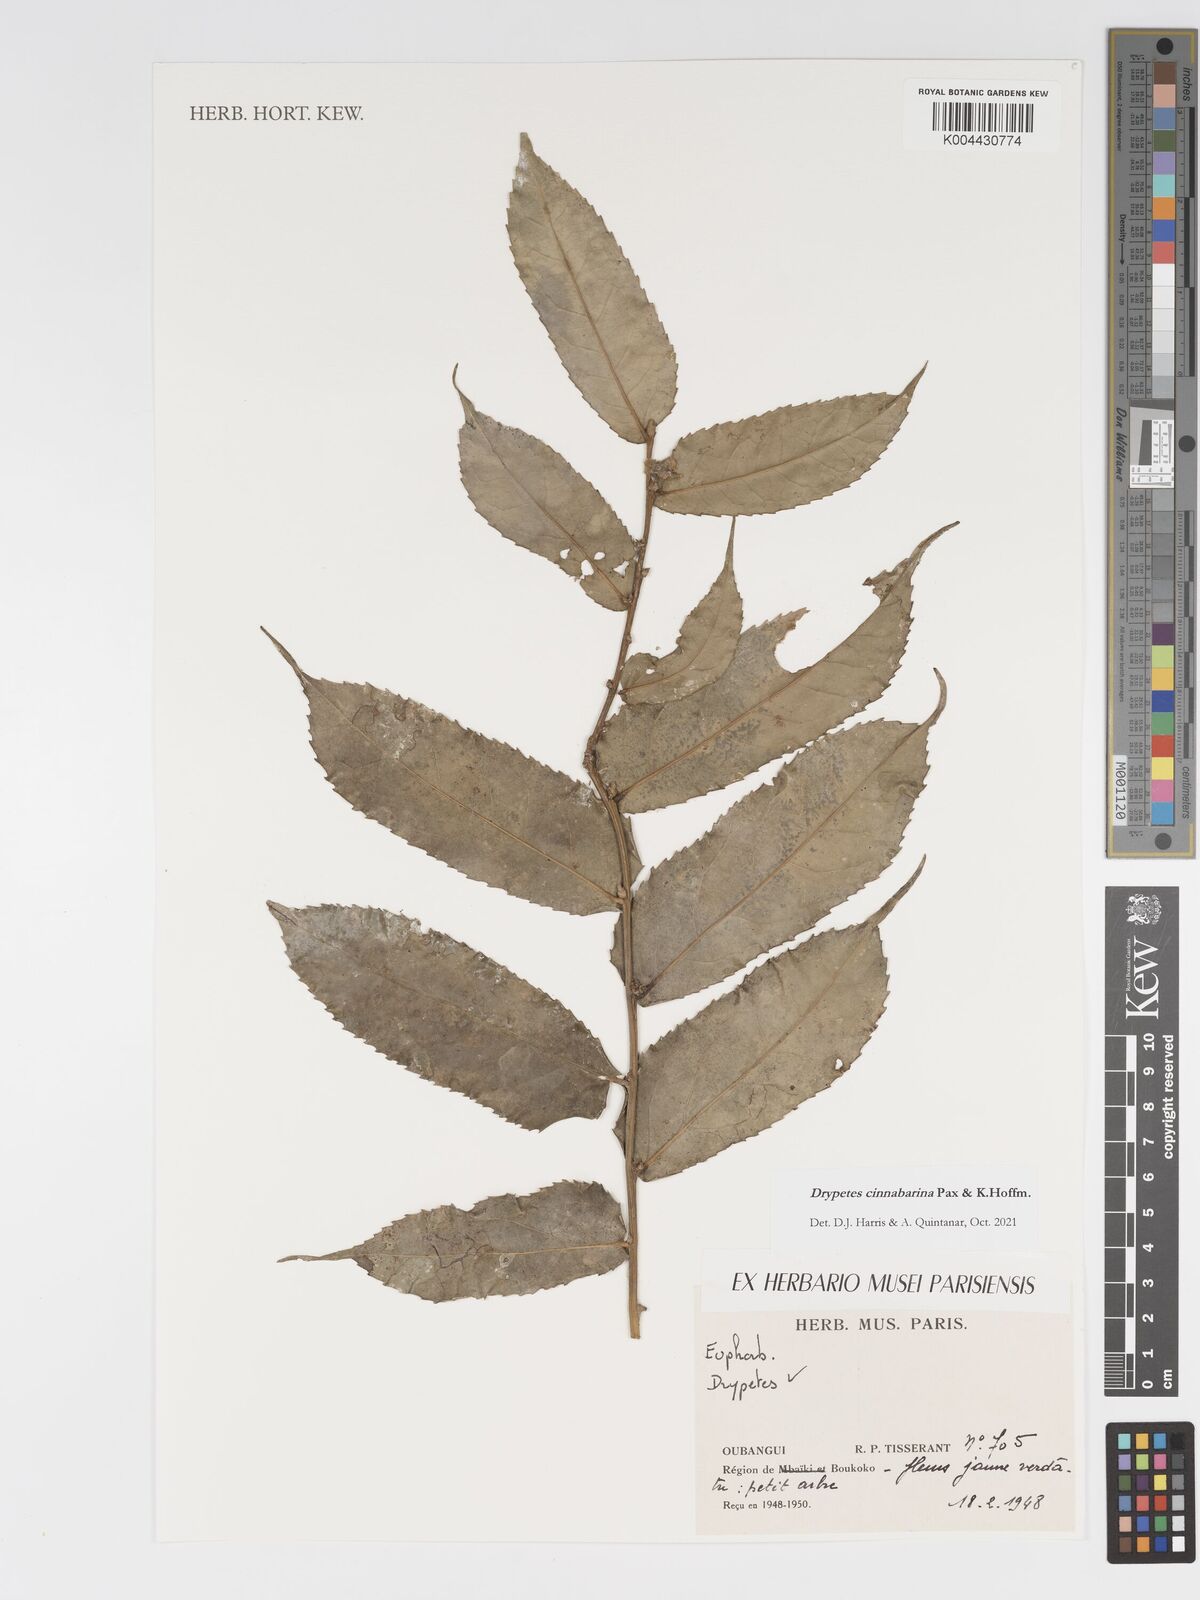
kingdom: Plantae
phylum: Tracheophyta
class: Magnoliopsida
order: Malpighiales
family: Putranjivaceae
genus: Drypetes
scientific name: Drypetes cinnabarina
